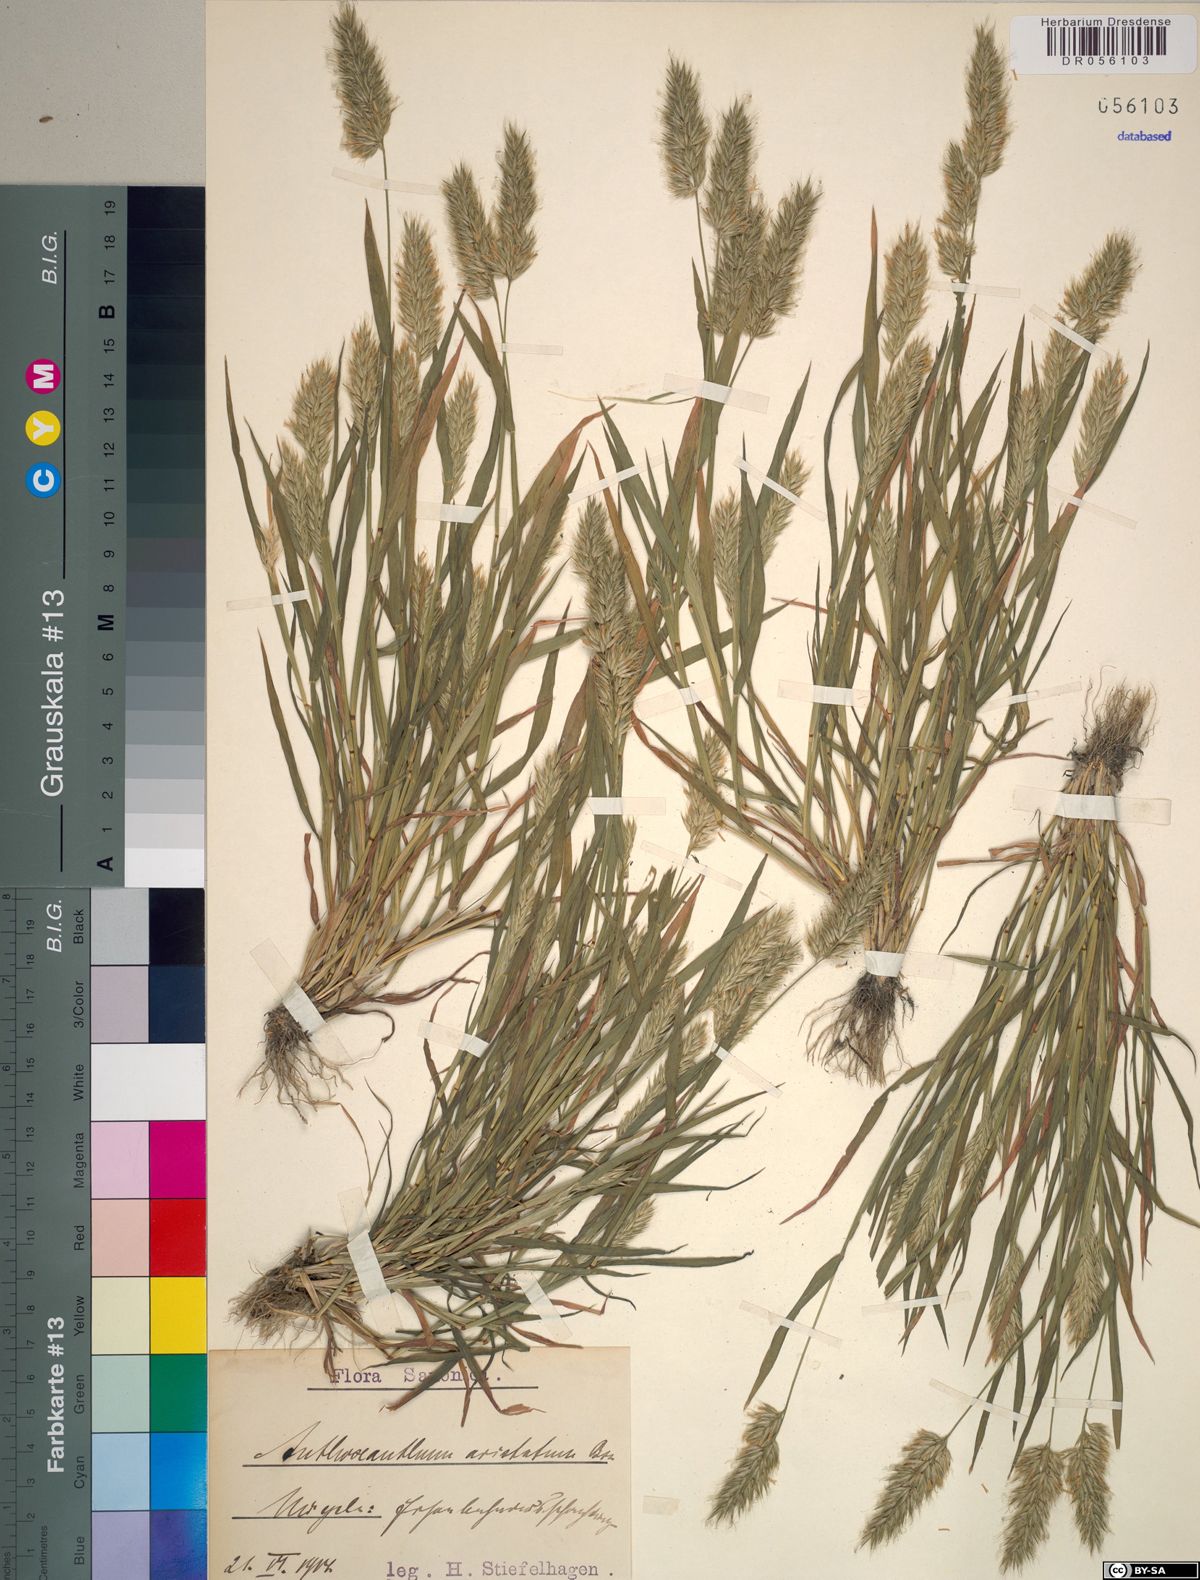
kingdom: Plantae
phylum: Tracheophyta
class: Liliopsida
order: Poales
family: Poaceae
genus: Anthoxanthum
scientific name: Anthoxanthum aristatum
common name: Annual vernal-grass
